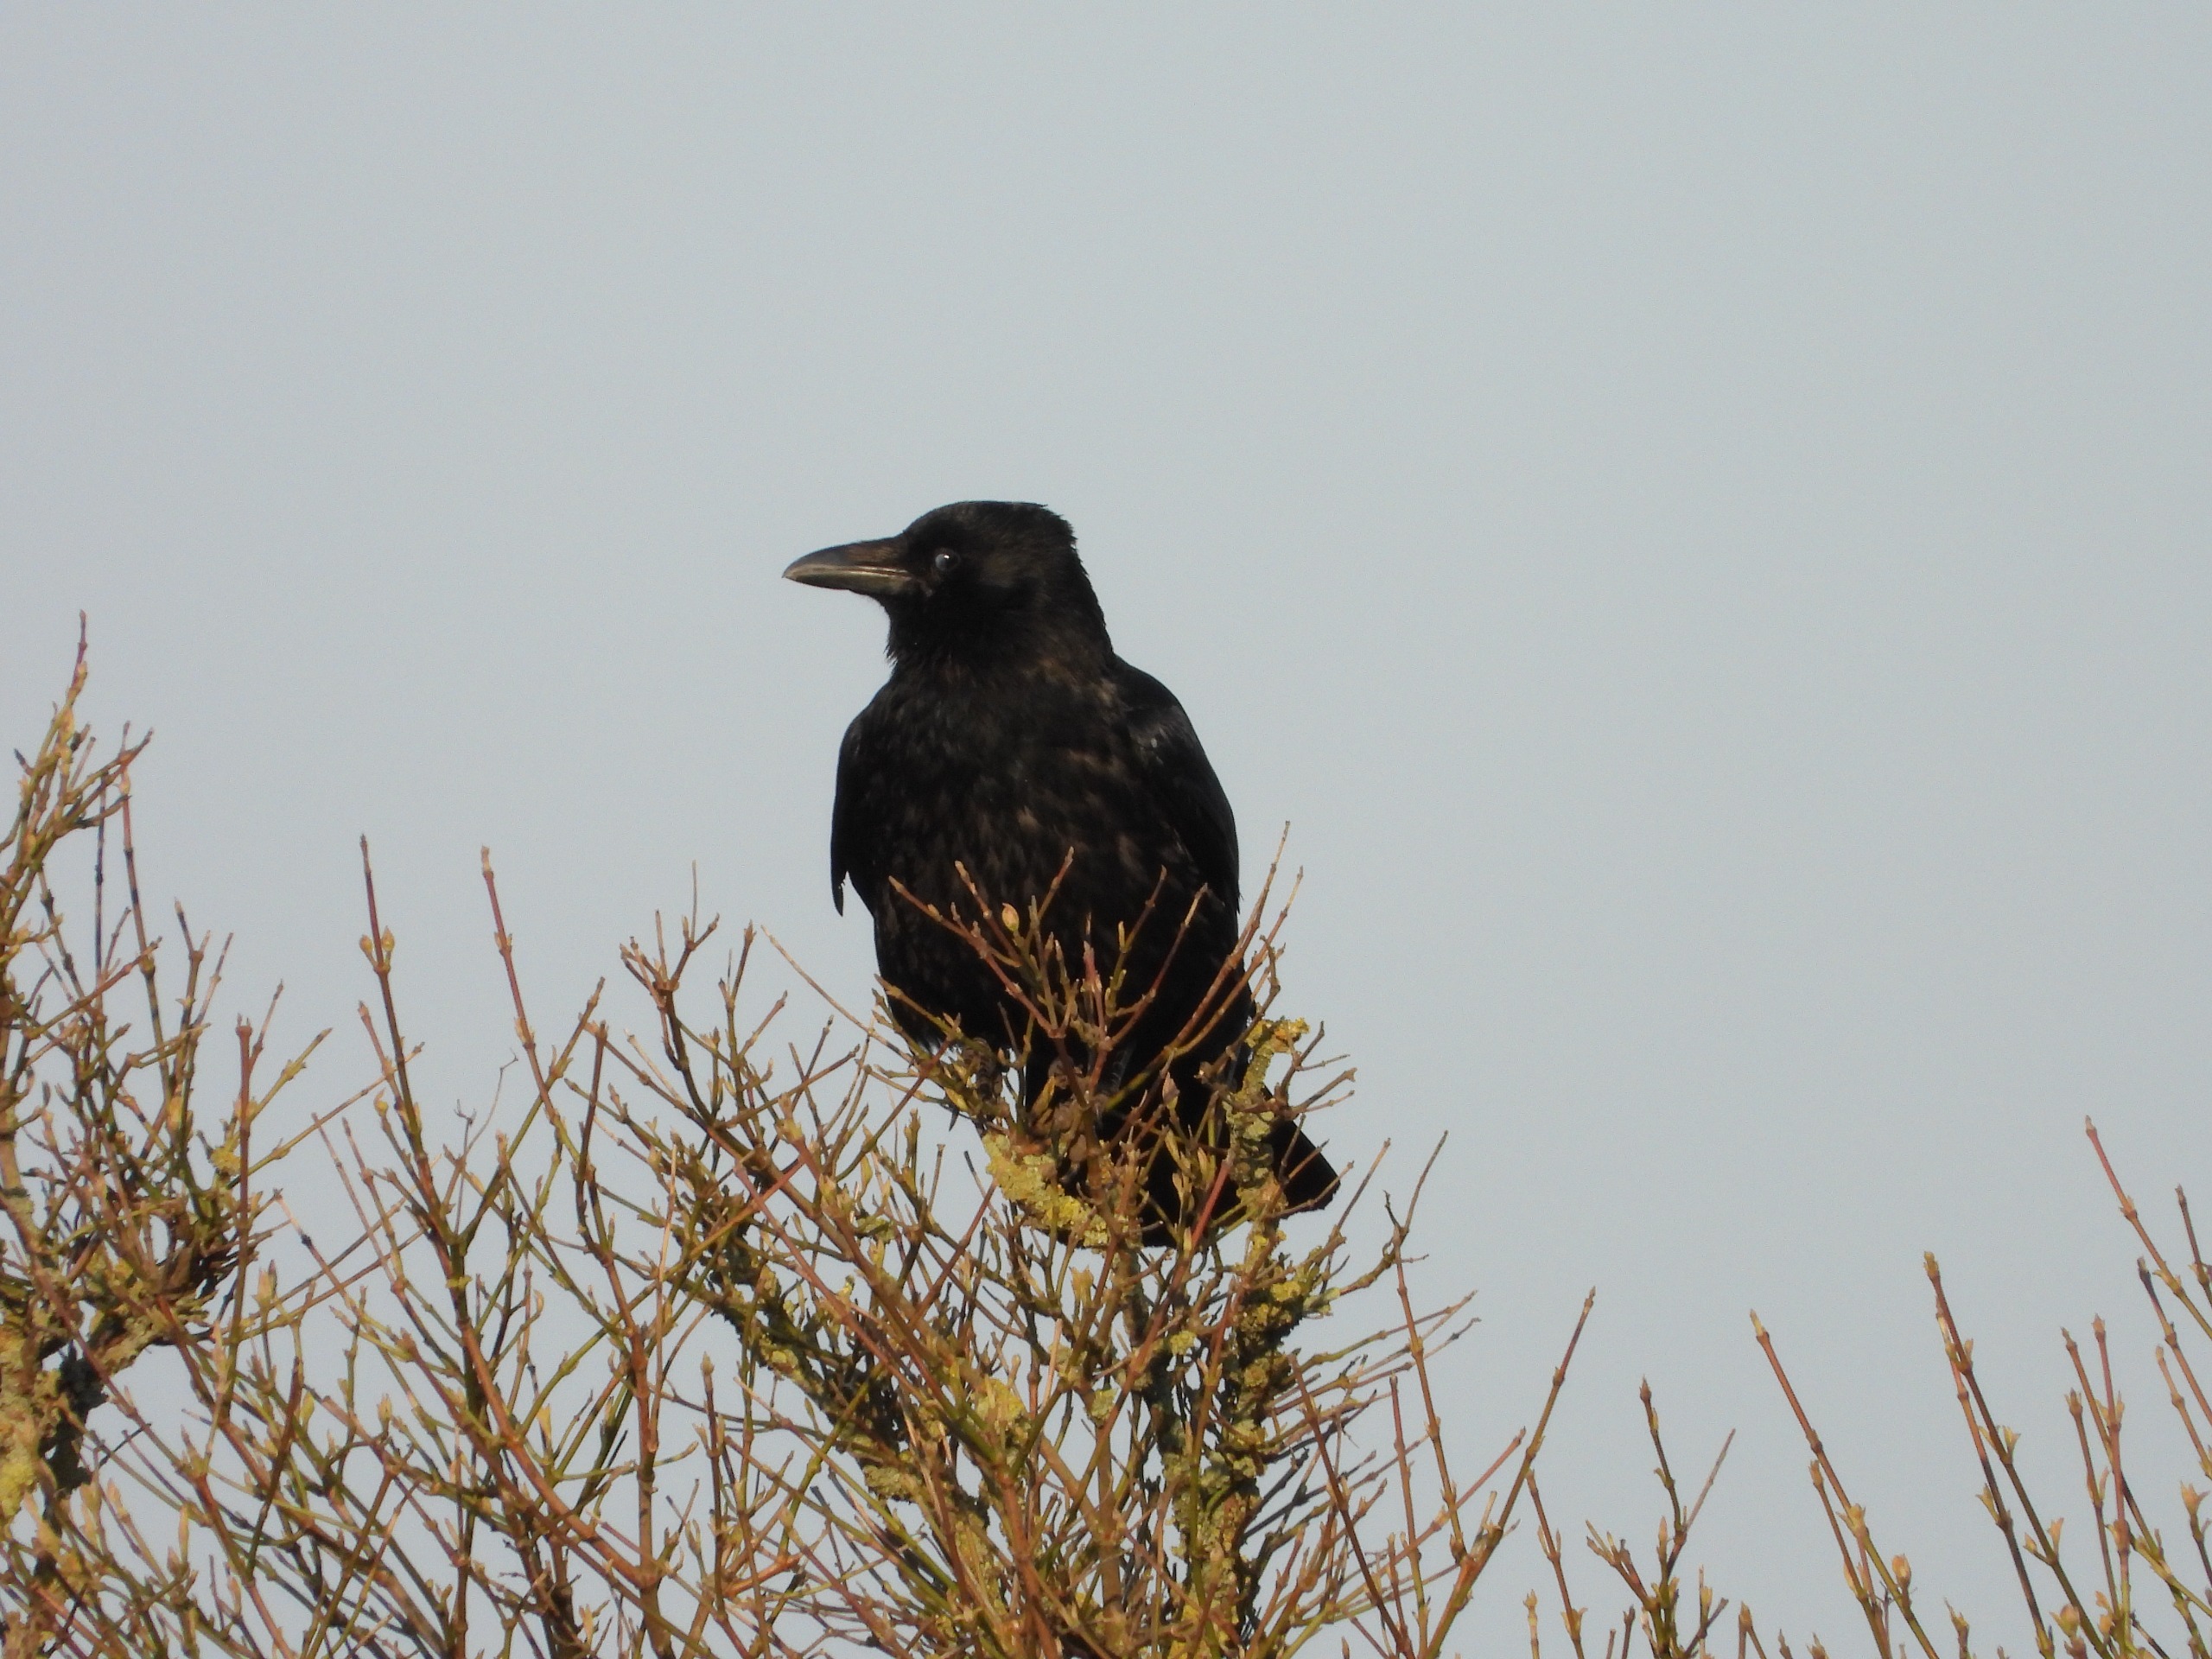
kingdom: Animalia
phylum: Chordata
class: Aves
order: Passeriformes
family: Corvidae
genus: Corvus
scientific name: Corvus corone
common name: Sortkrage
